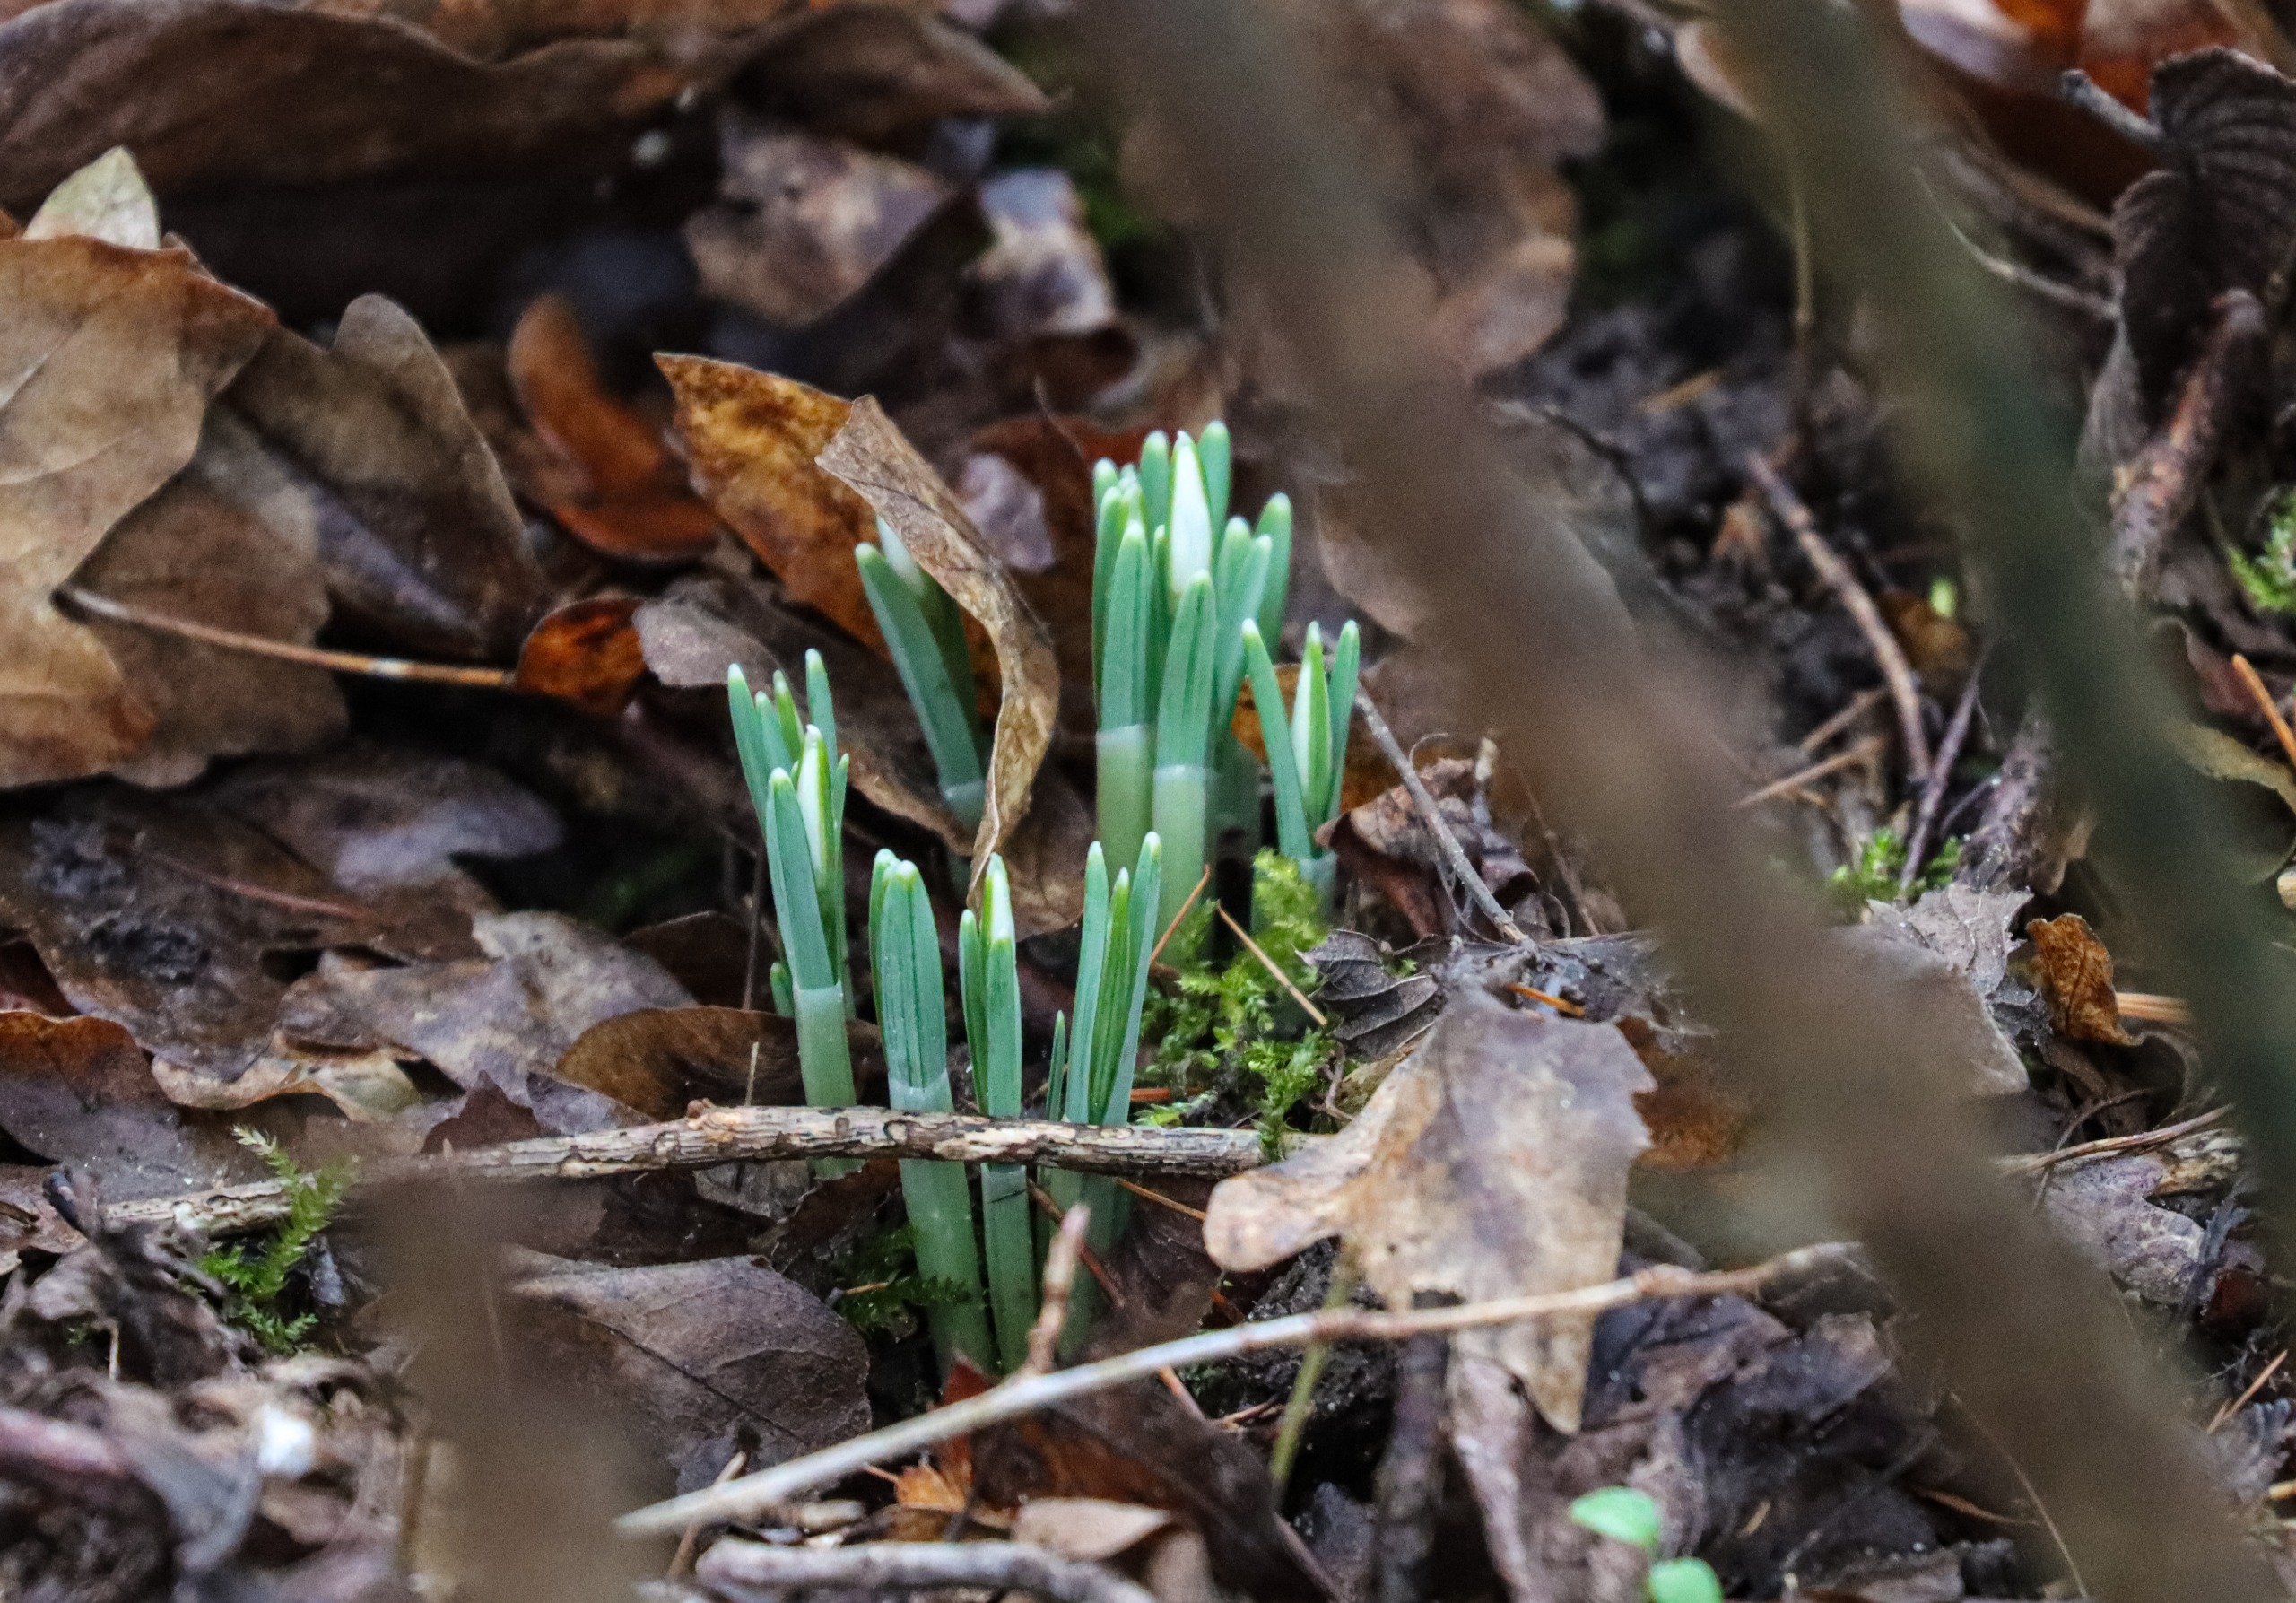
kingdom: Plantae
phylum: Tracheophyta
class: Liliopsida
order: Asparagales
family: Amaryllidaceae
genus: Galanthus
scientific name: Galanthus nivalis
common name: Vintergæk
